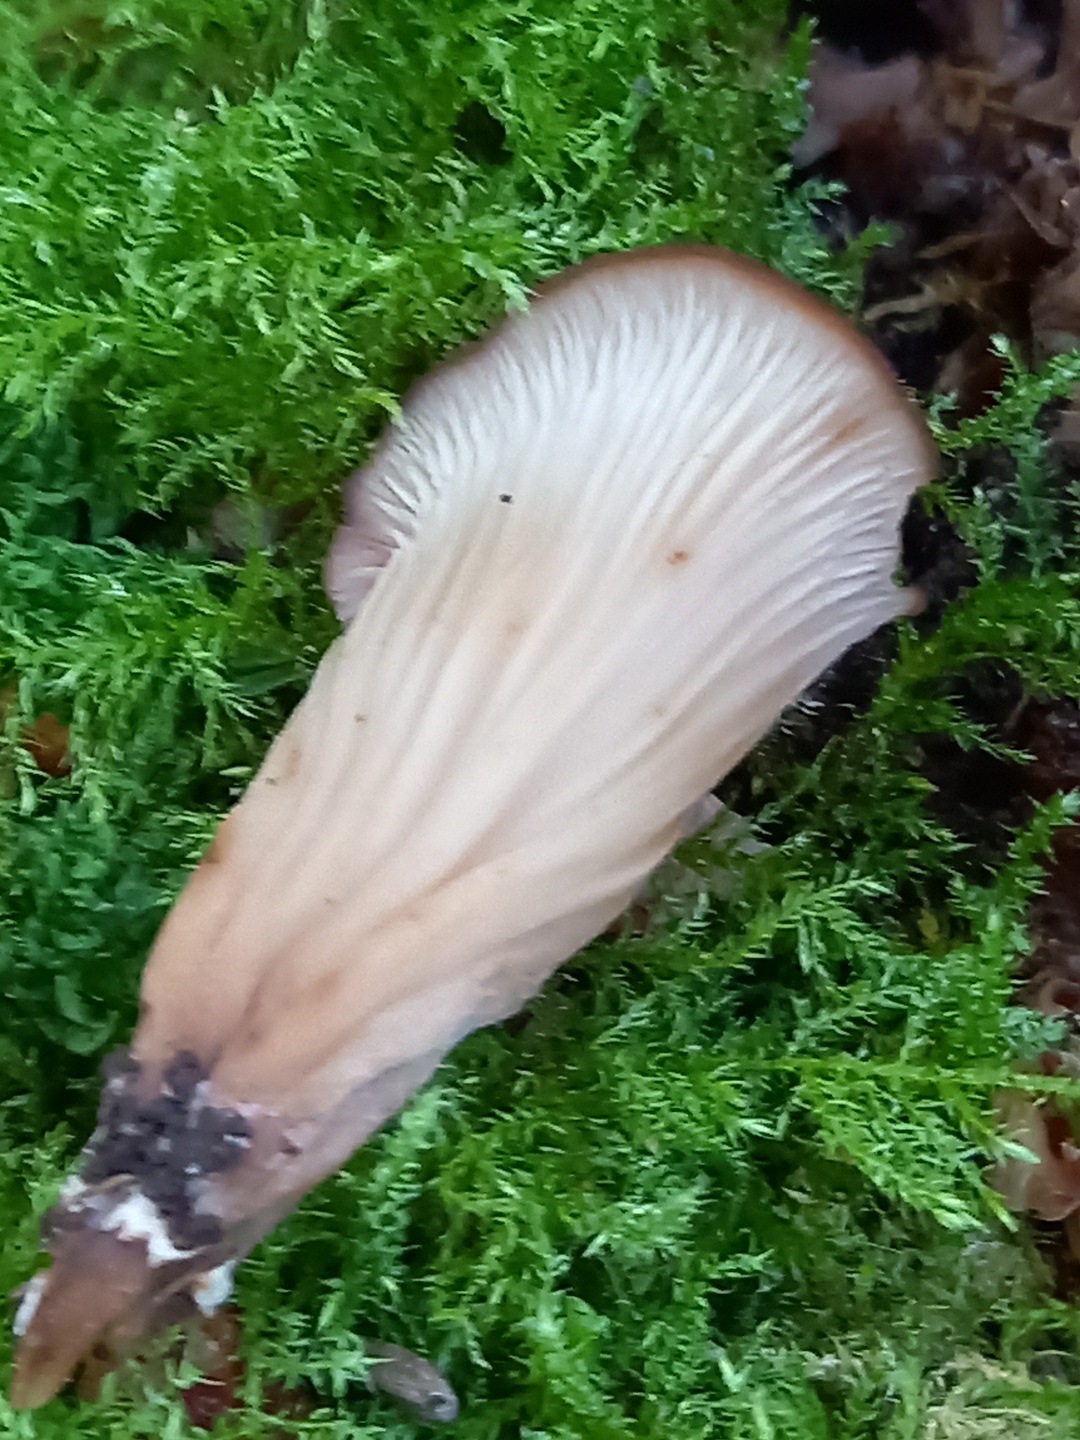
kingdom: Fungi
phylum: Basidiomycota
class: Agaricomycetes
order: Russulales
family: Auriscalpiaceae
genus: Lentinellus
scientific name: Lentinellus cochleatus
